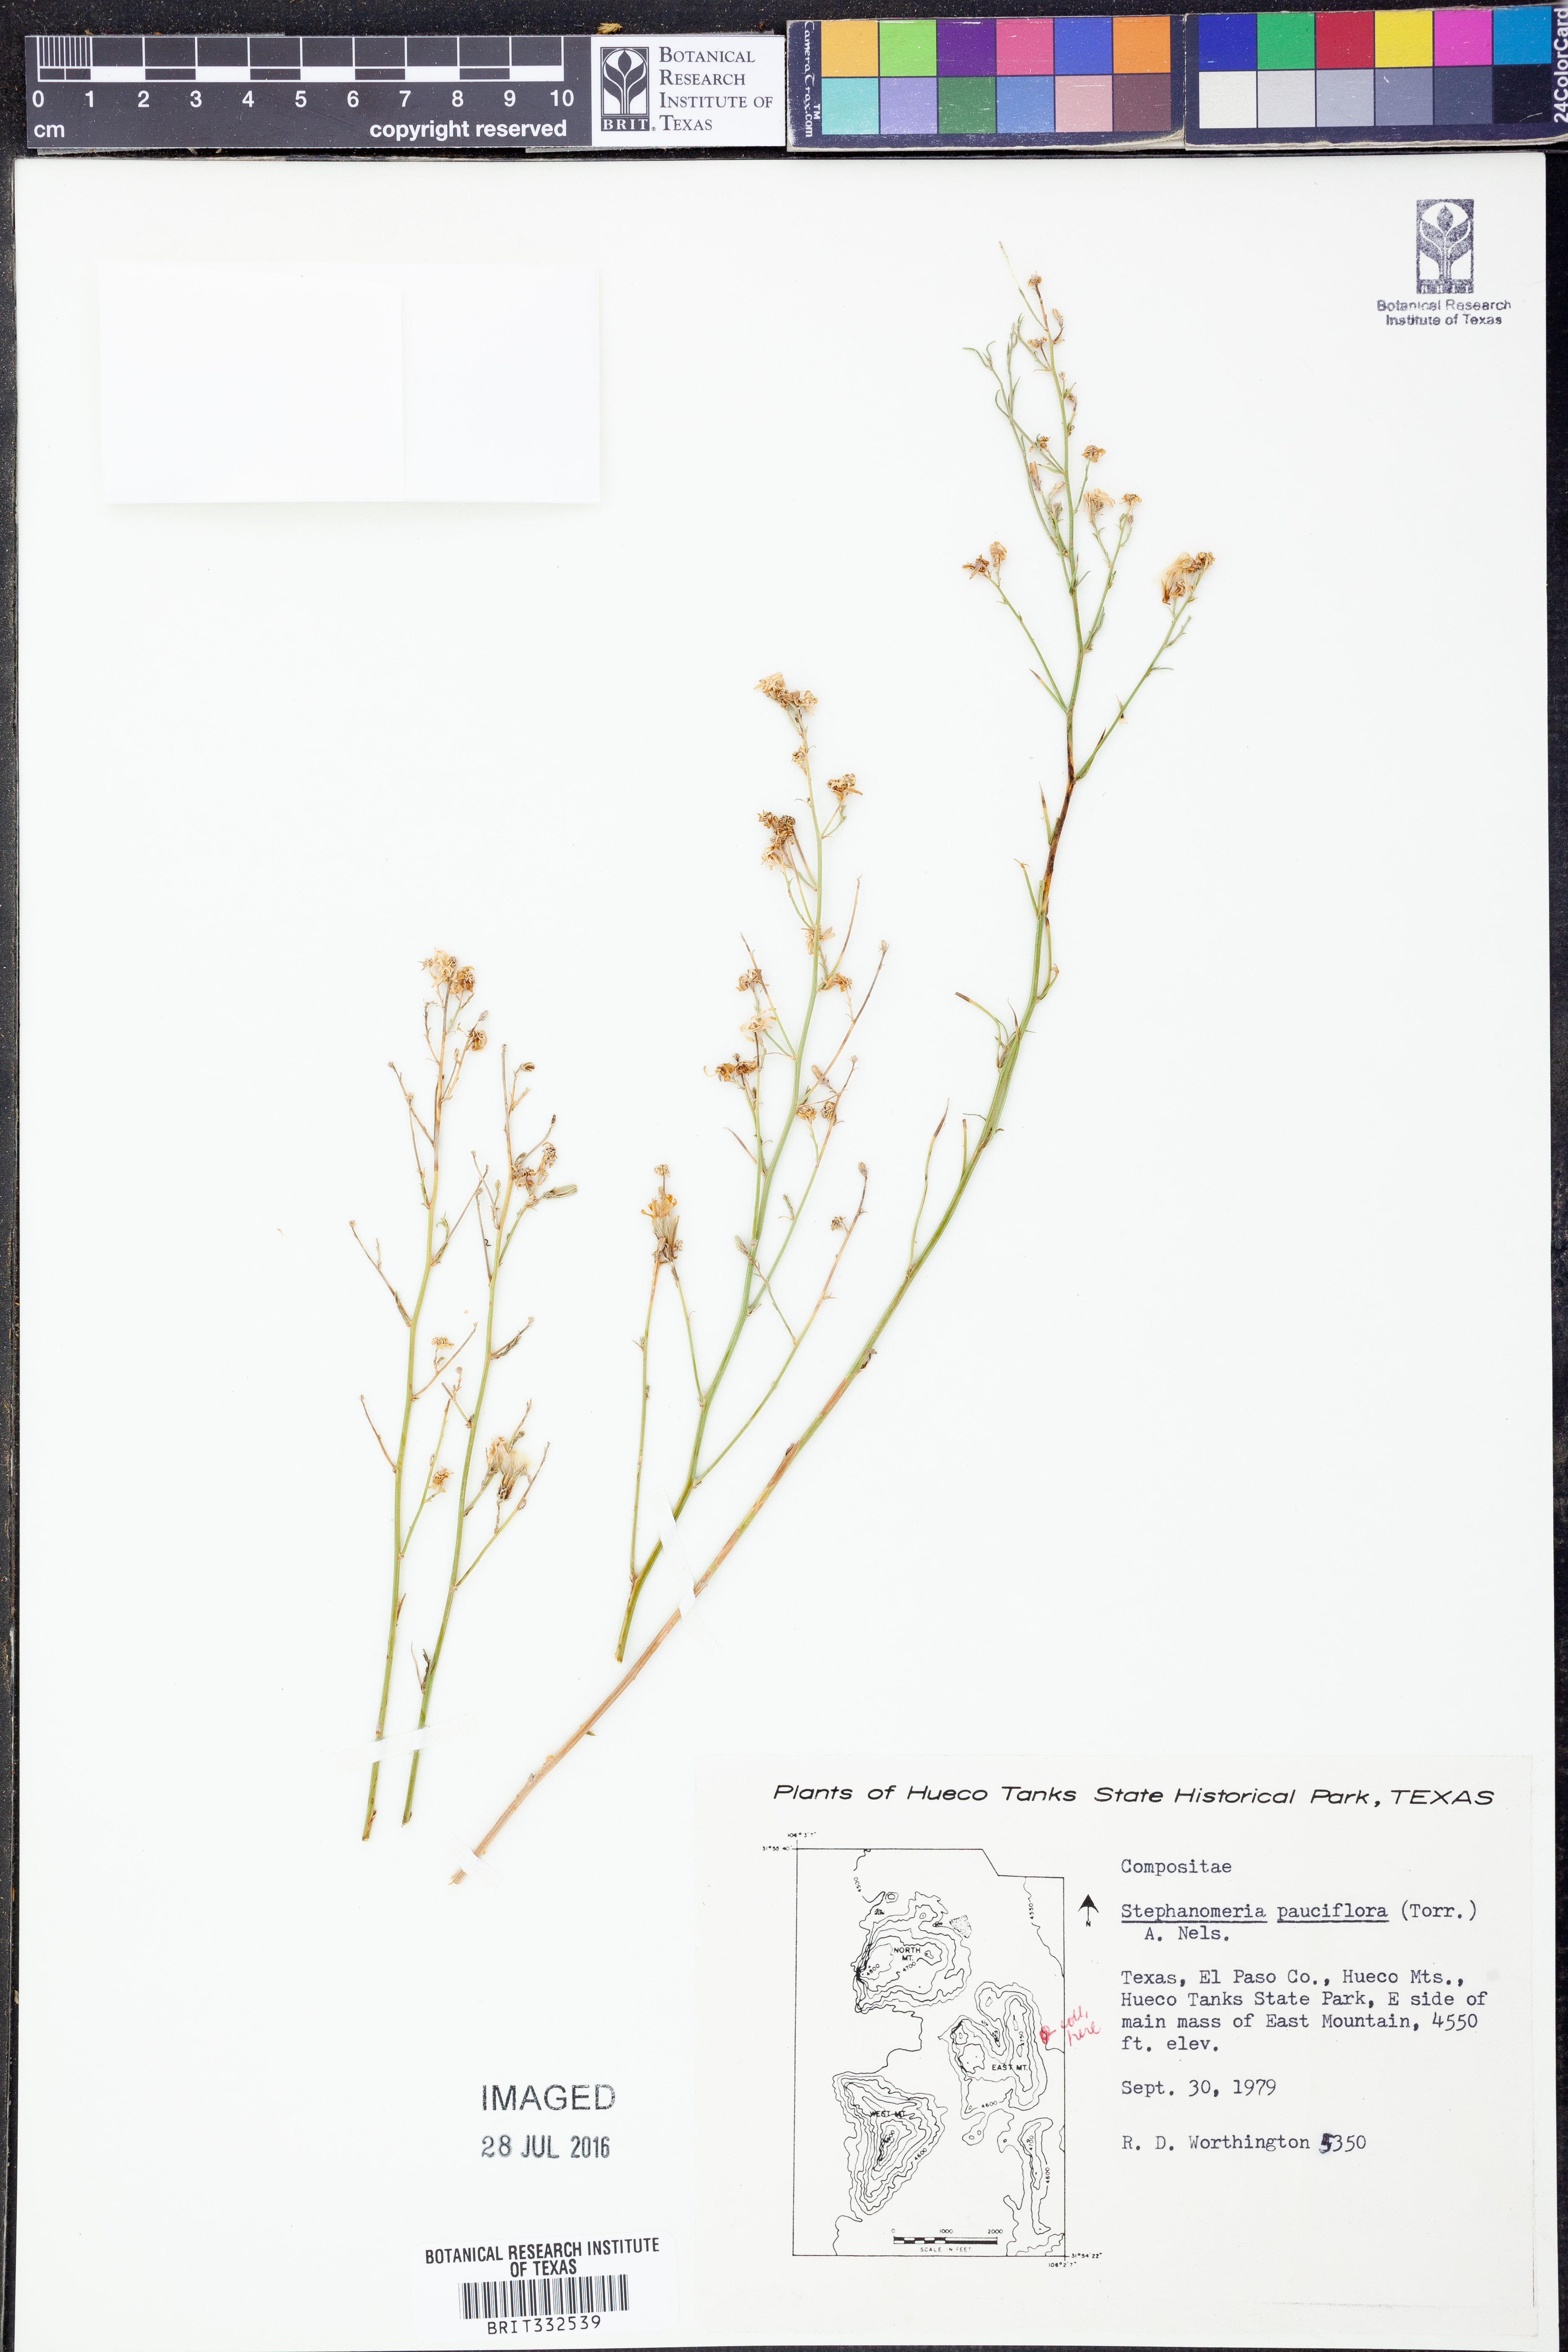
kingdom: Plantae
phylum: Tracheophyta
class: Magnoliopsida
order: Asterales
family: Asteraceae
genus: Stephanomeria
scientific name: Stephanomeria pauciflora
